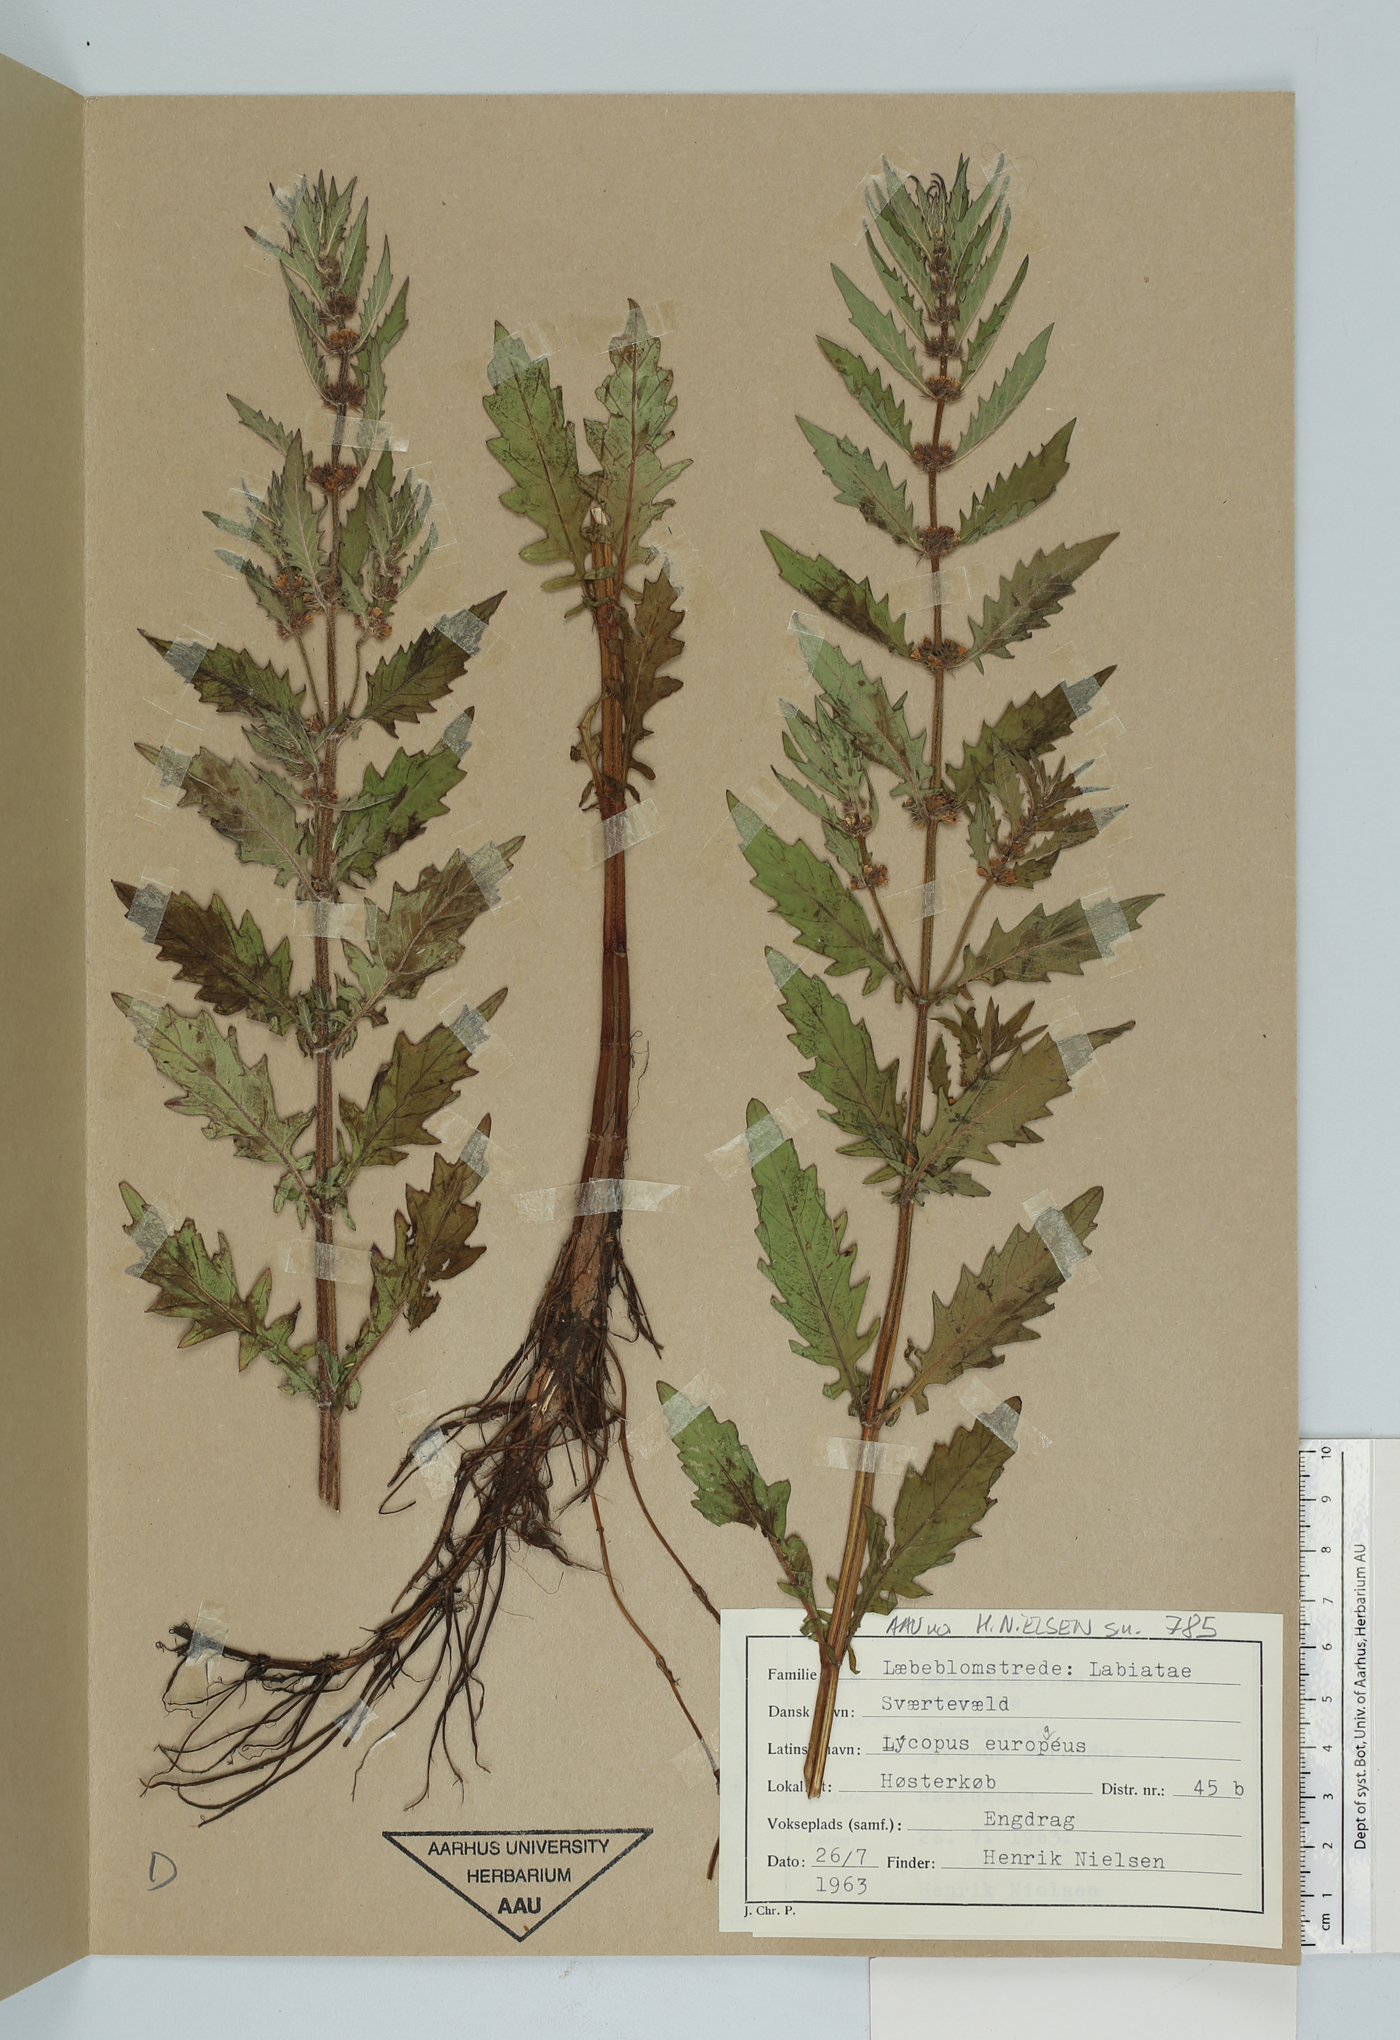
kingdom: Plantae
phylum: Tracheophyta
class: Magnoliopsida
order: Lamiales
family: Lamiaceae
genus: Lycopus
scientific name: Lycopus europaeus
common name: European bugleweed
